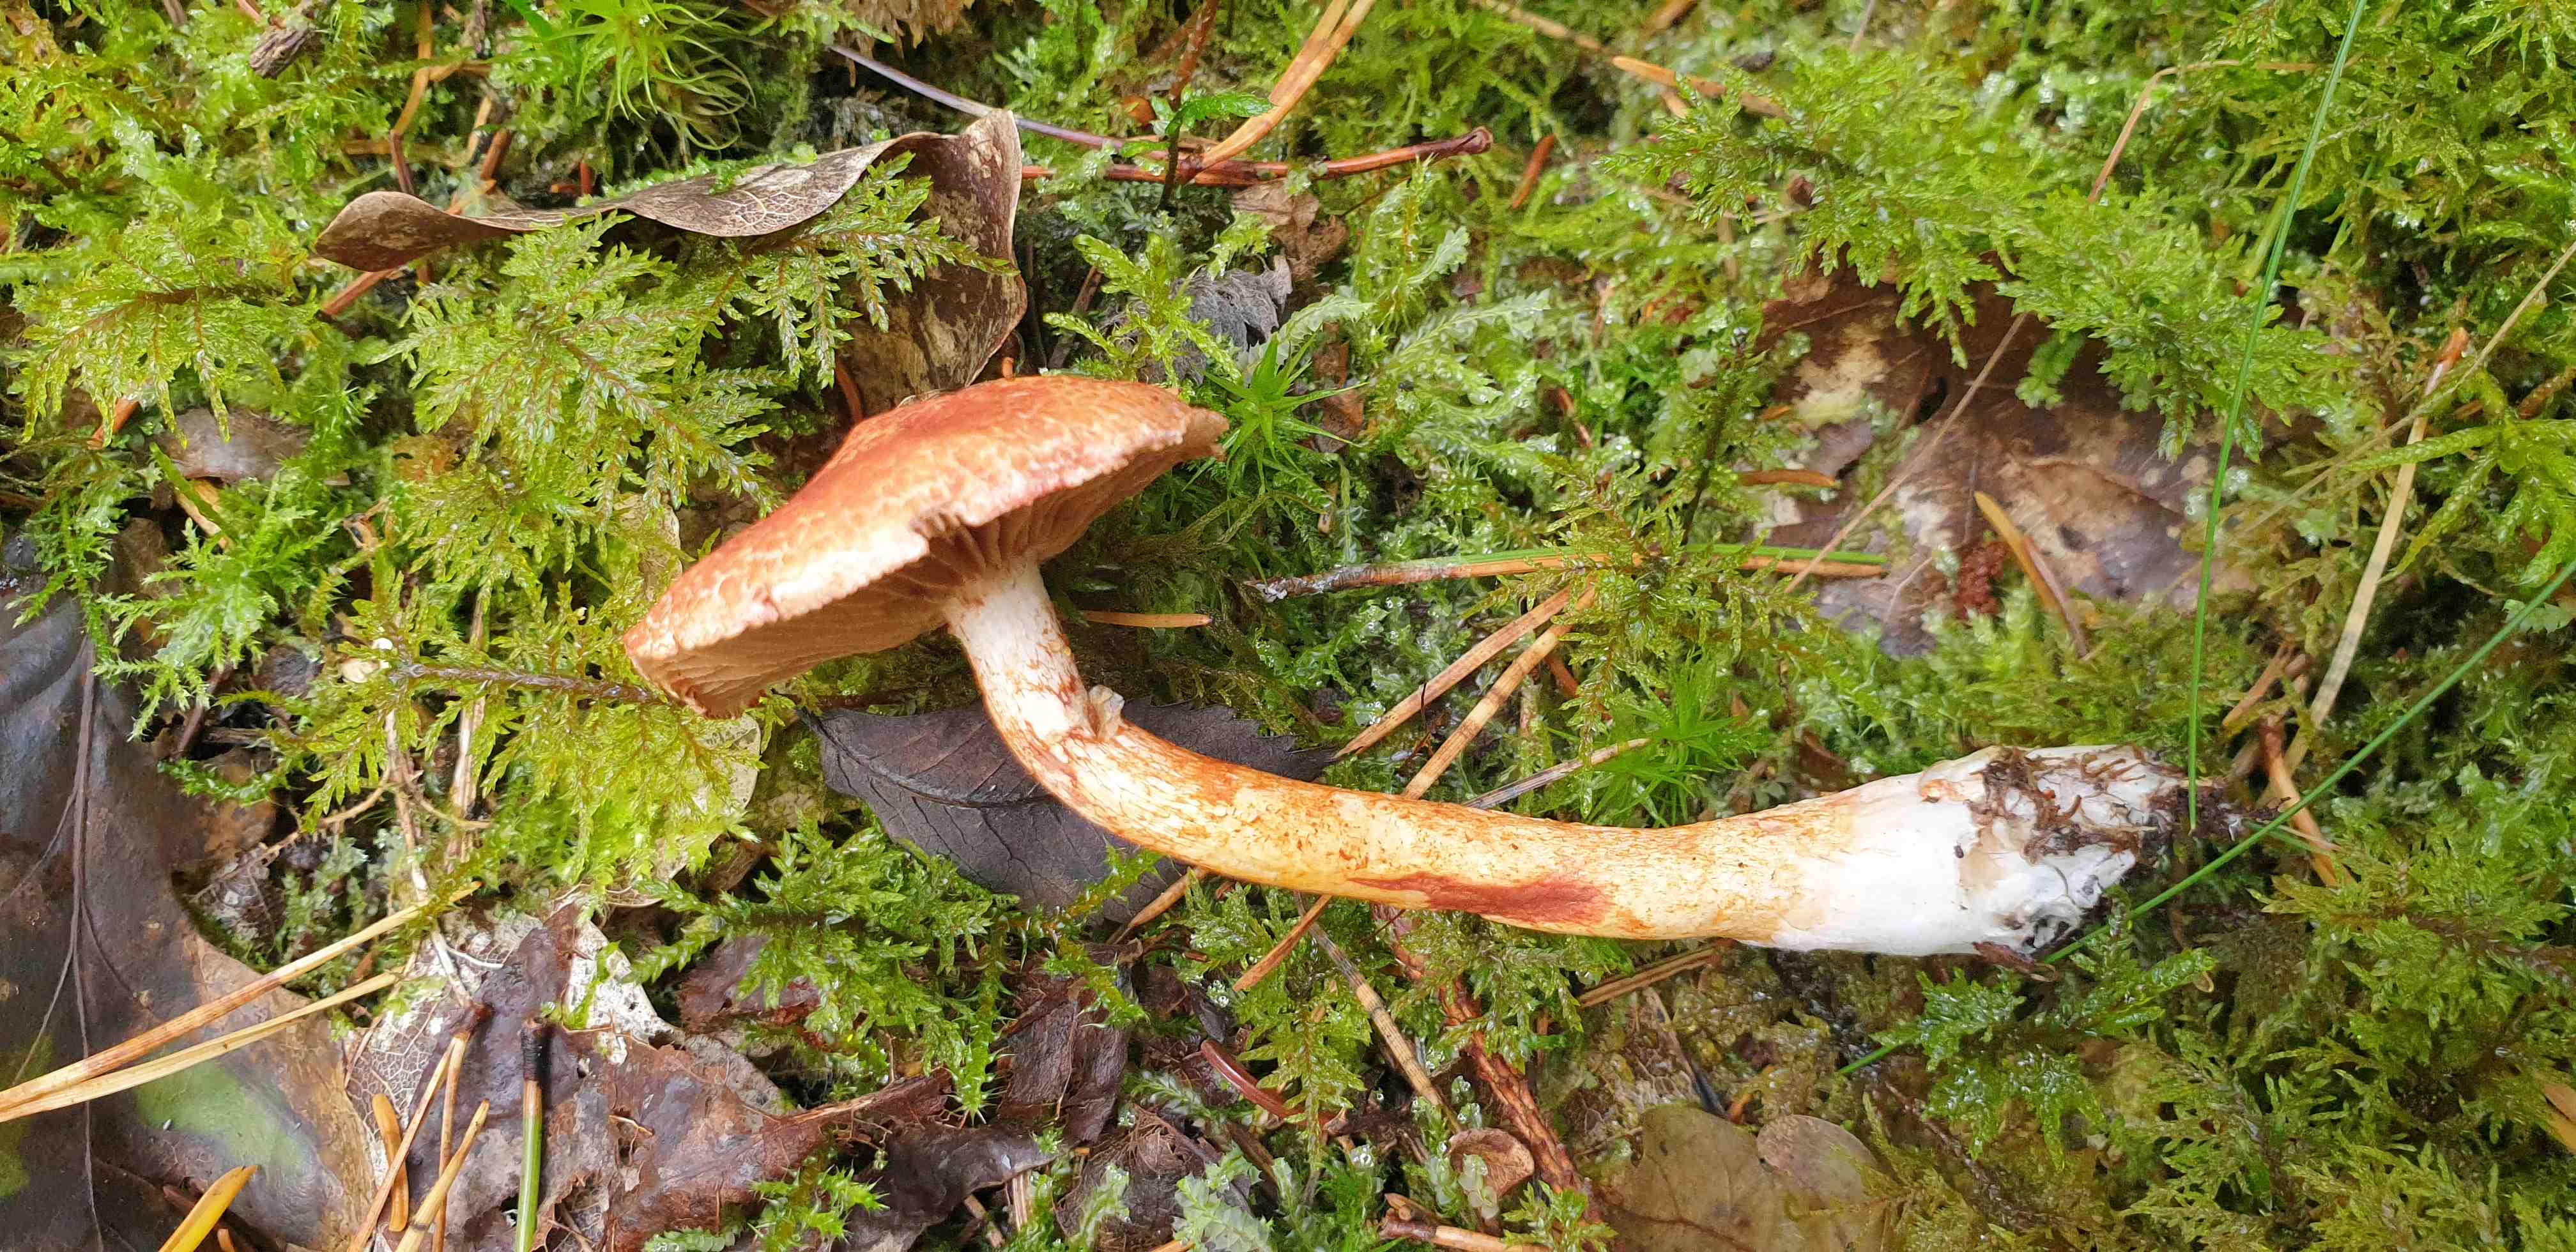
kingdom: Fungi
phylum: Basidiomycota
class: Agaricomycetes
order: Agaricales
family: Cortinariaceae
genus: Cortinarius
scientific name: Cortinarius bolaris
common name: cinnoberskællet slørhat
